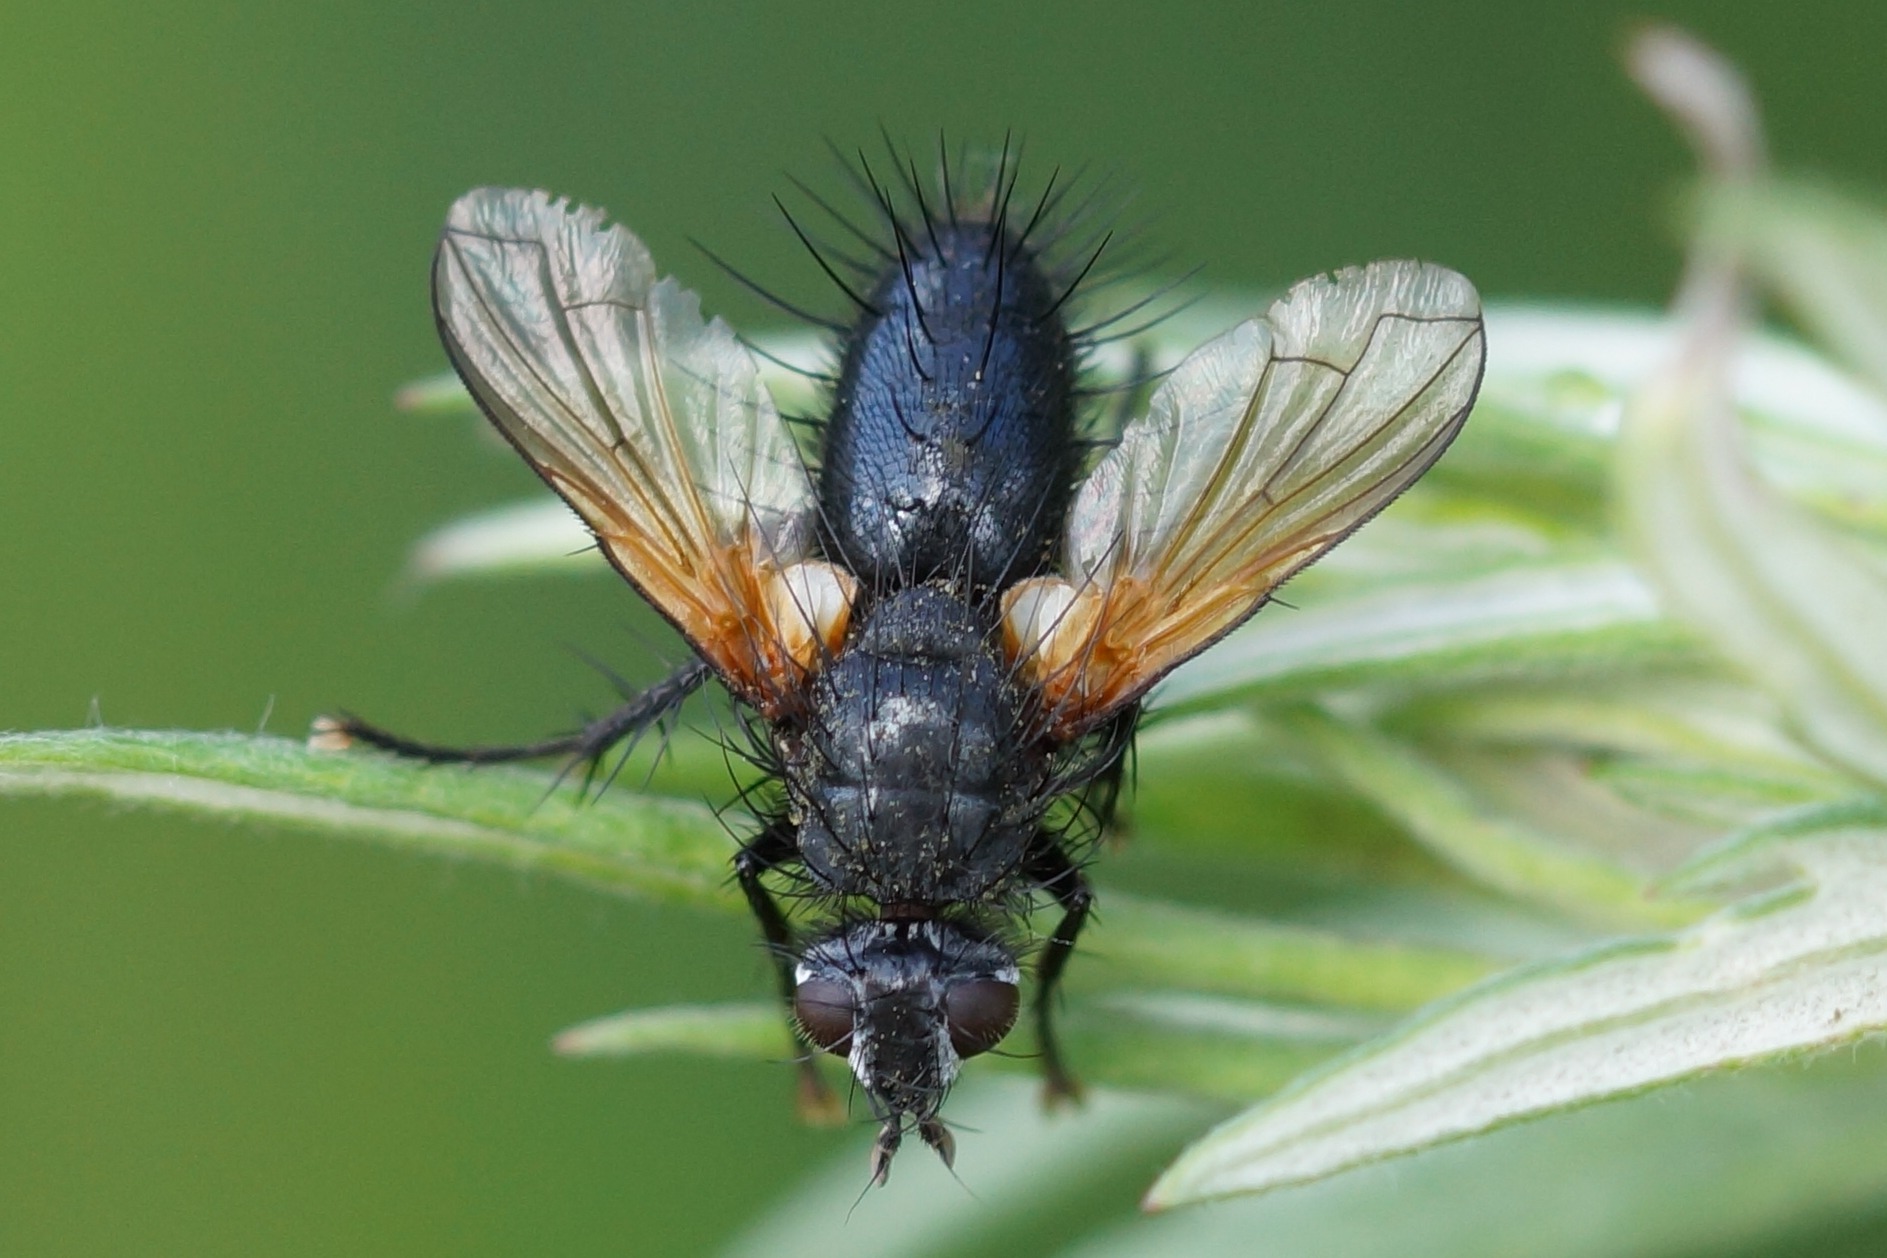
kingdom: Animalia
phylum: Arthropoda
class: Insecta
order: Diptera
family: Tachinidae
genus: Zophomyia
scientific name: Zophomyia temula
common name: Gulvinget snylteflue
